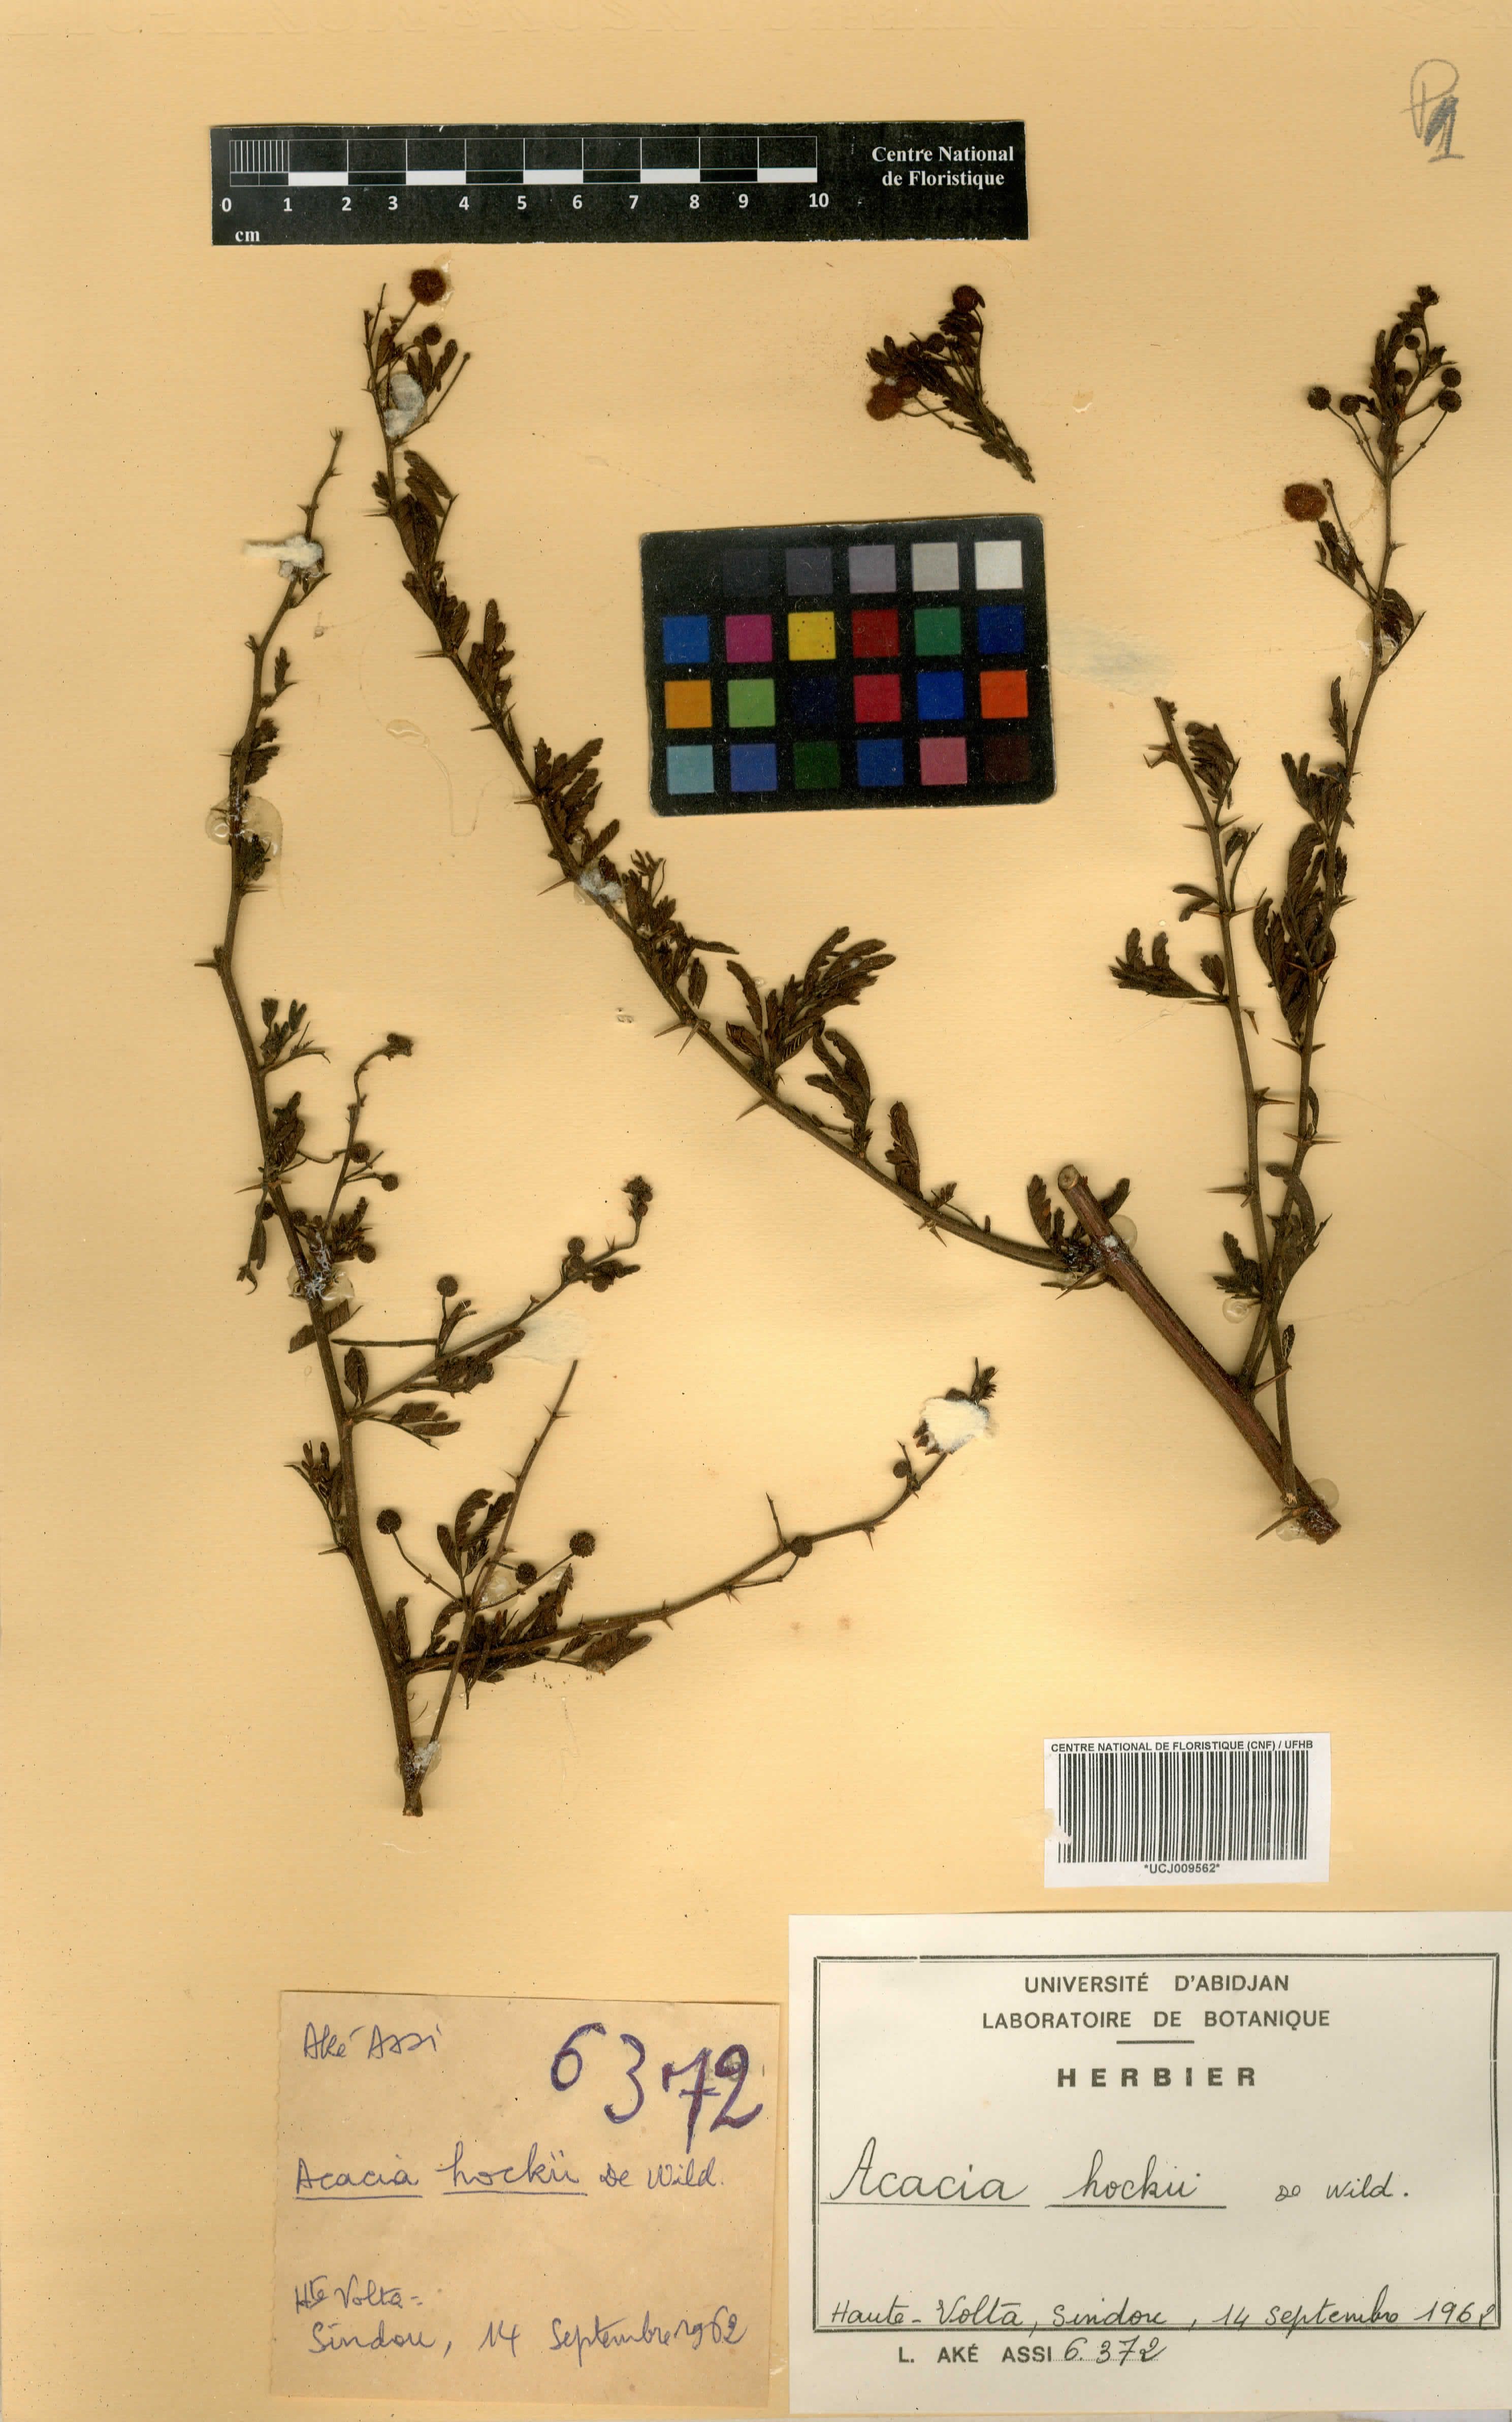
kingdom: Plantae
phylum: Tracheophyta
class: Magnoliopsida
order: Fabales
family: Fabaceae
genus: Vachellia
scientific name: Vachellia hockii
